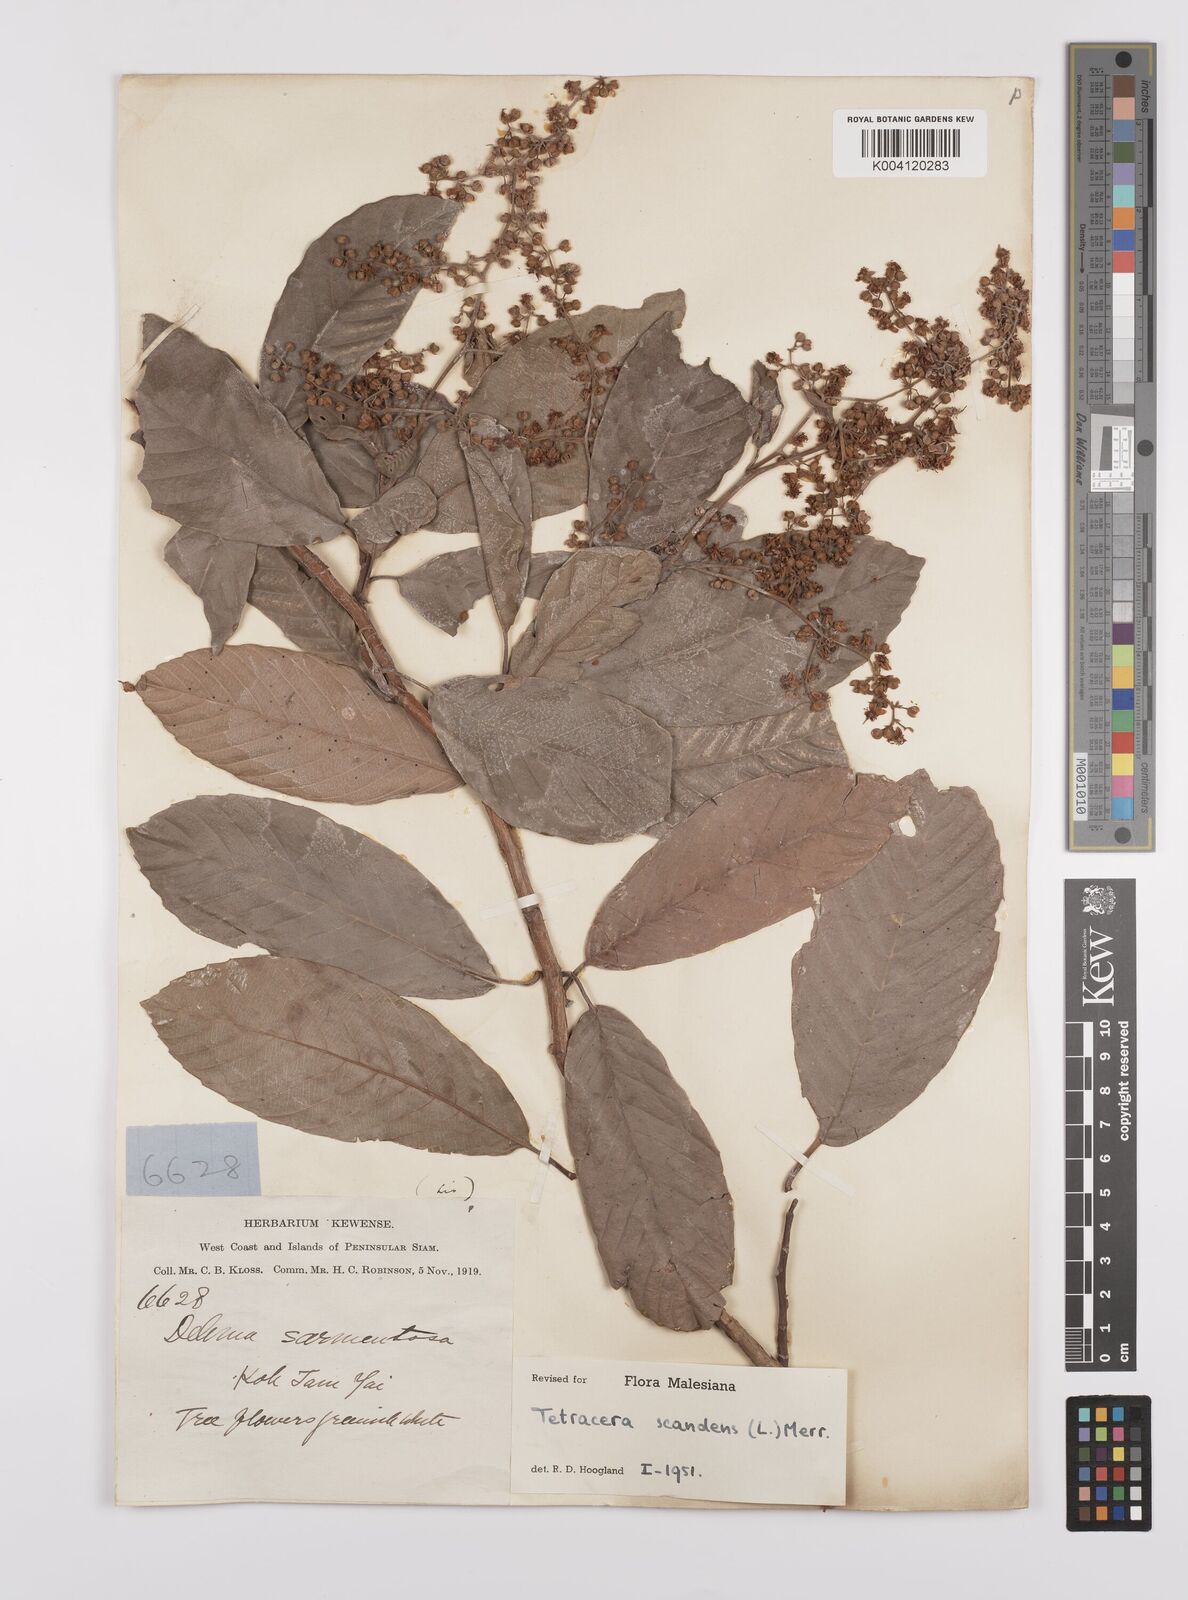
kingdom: Plantae
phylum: Tracheophyta
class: Magnoliopsida
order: Dilleniales
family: Dilleniaceae
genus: Tetracera
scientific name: Tetracera
